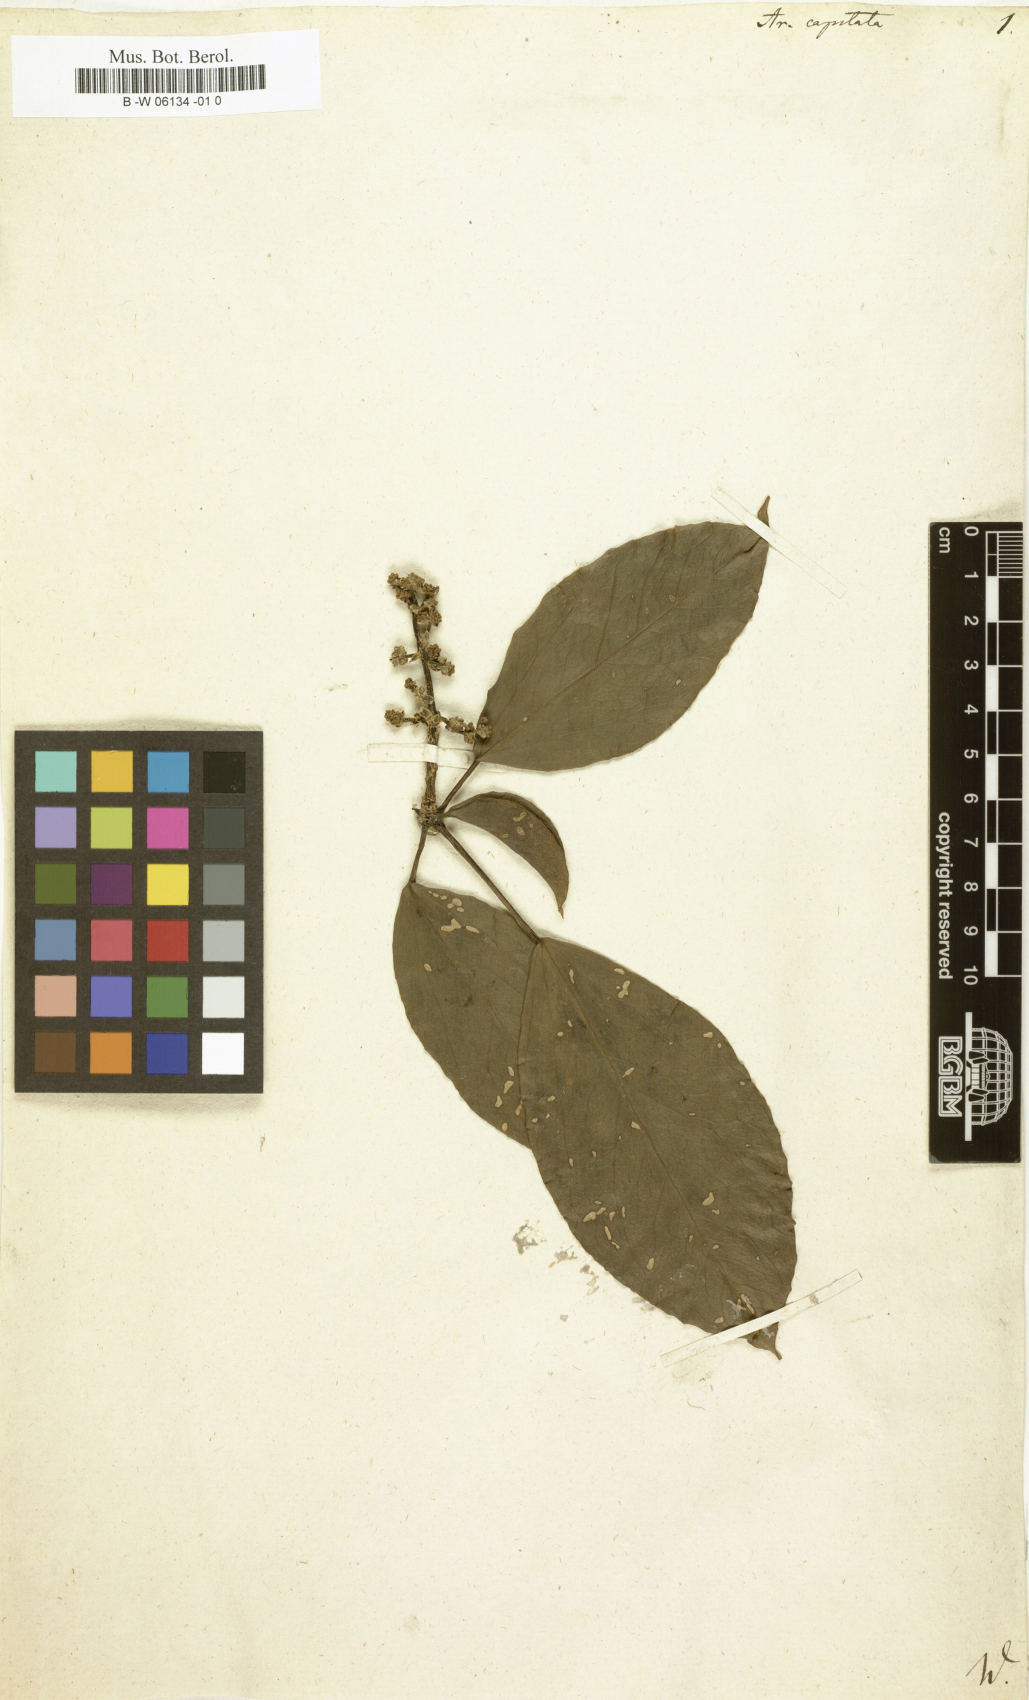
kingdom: Plantae
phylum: Tracheophyta
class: Magnoliopsida
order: Apiales
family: Araliaceae
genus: Oreopanax
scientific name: Oreopanax capitatus
